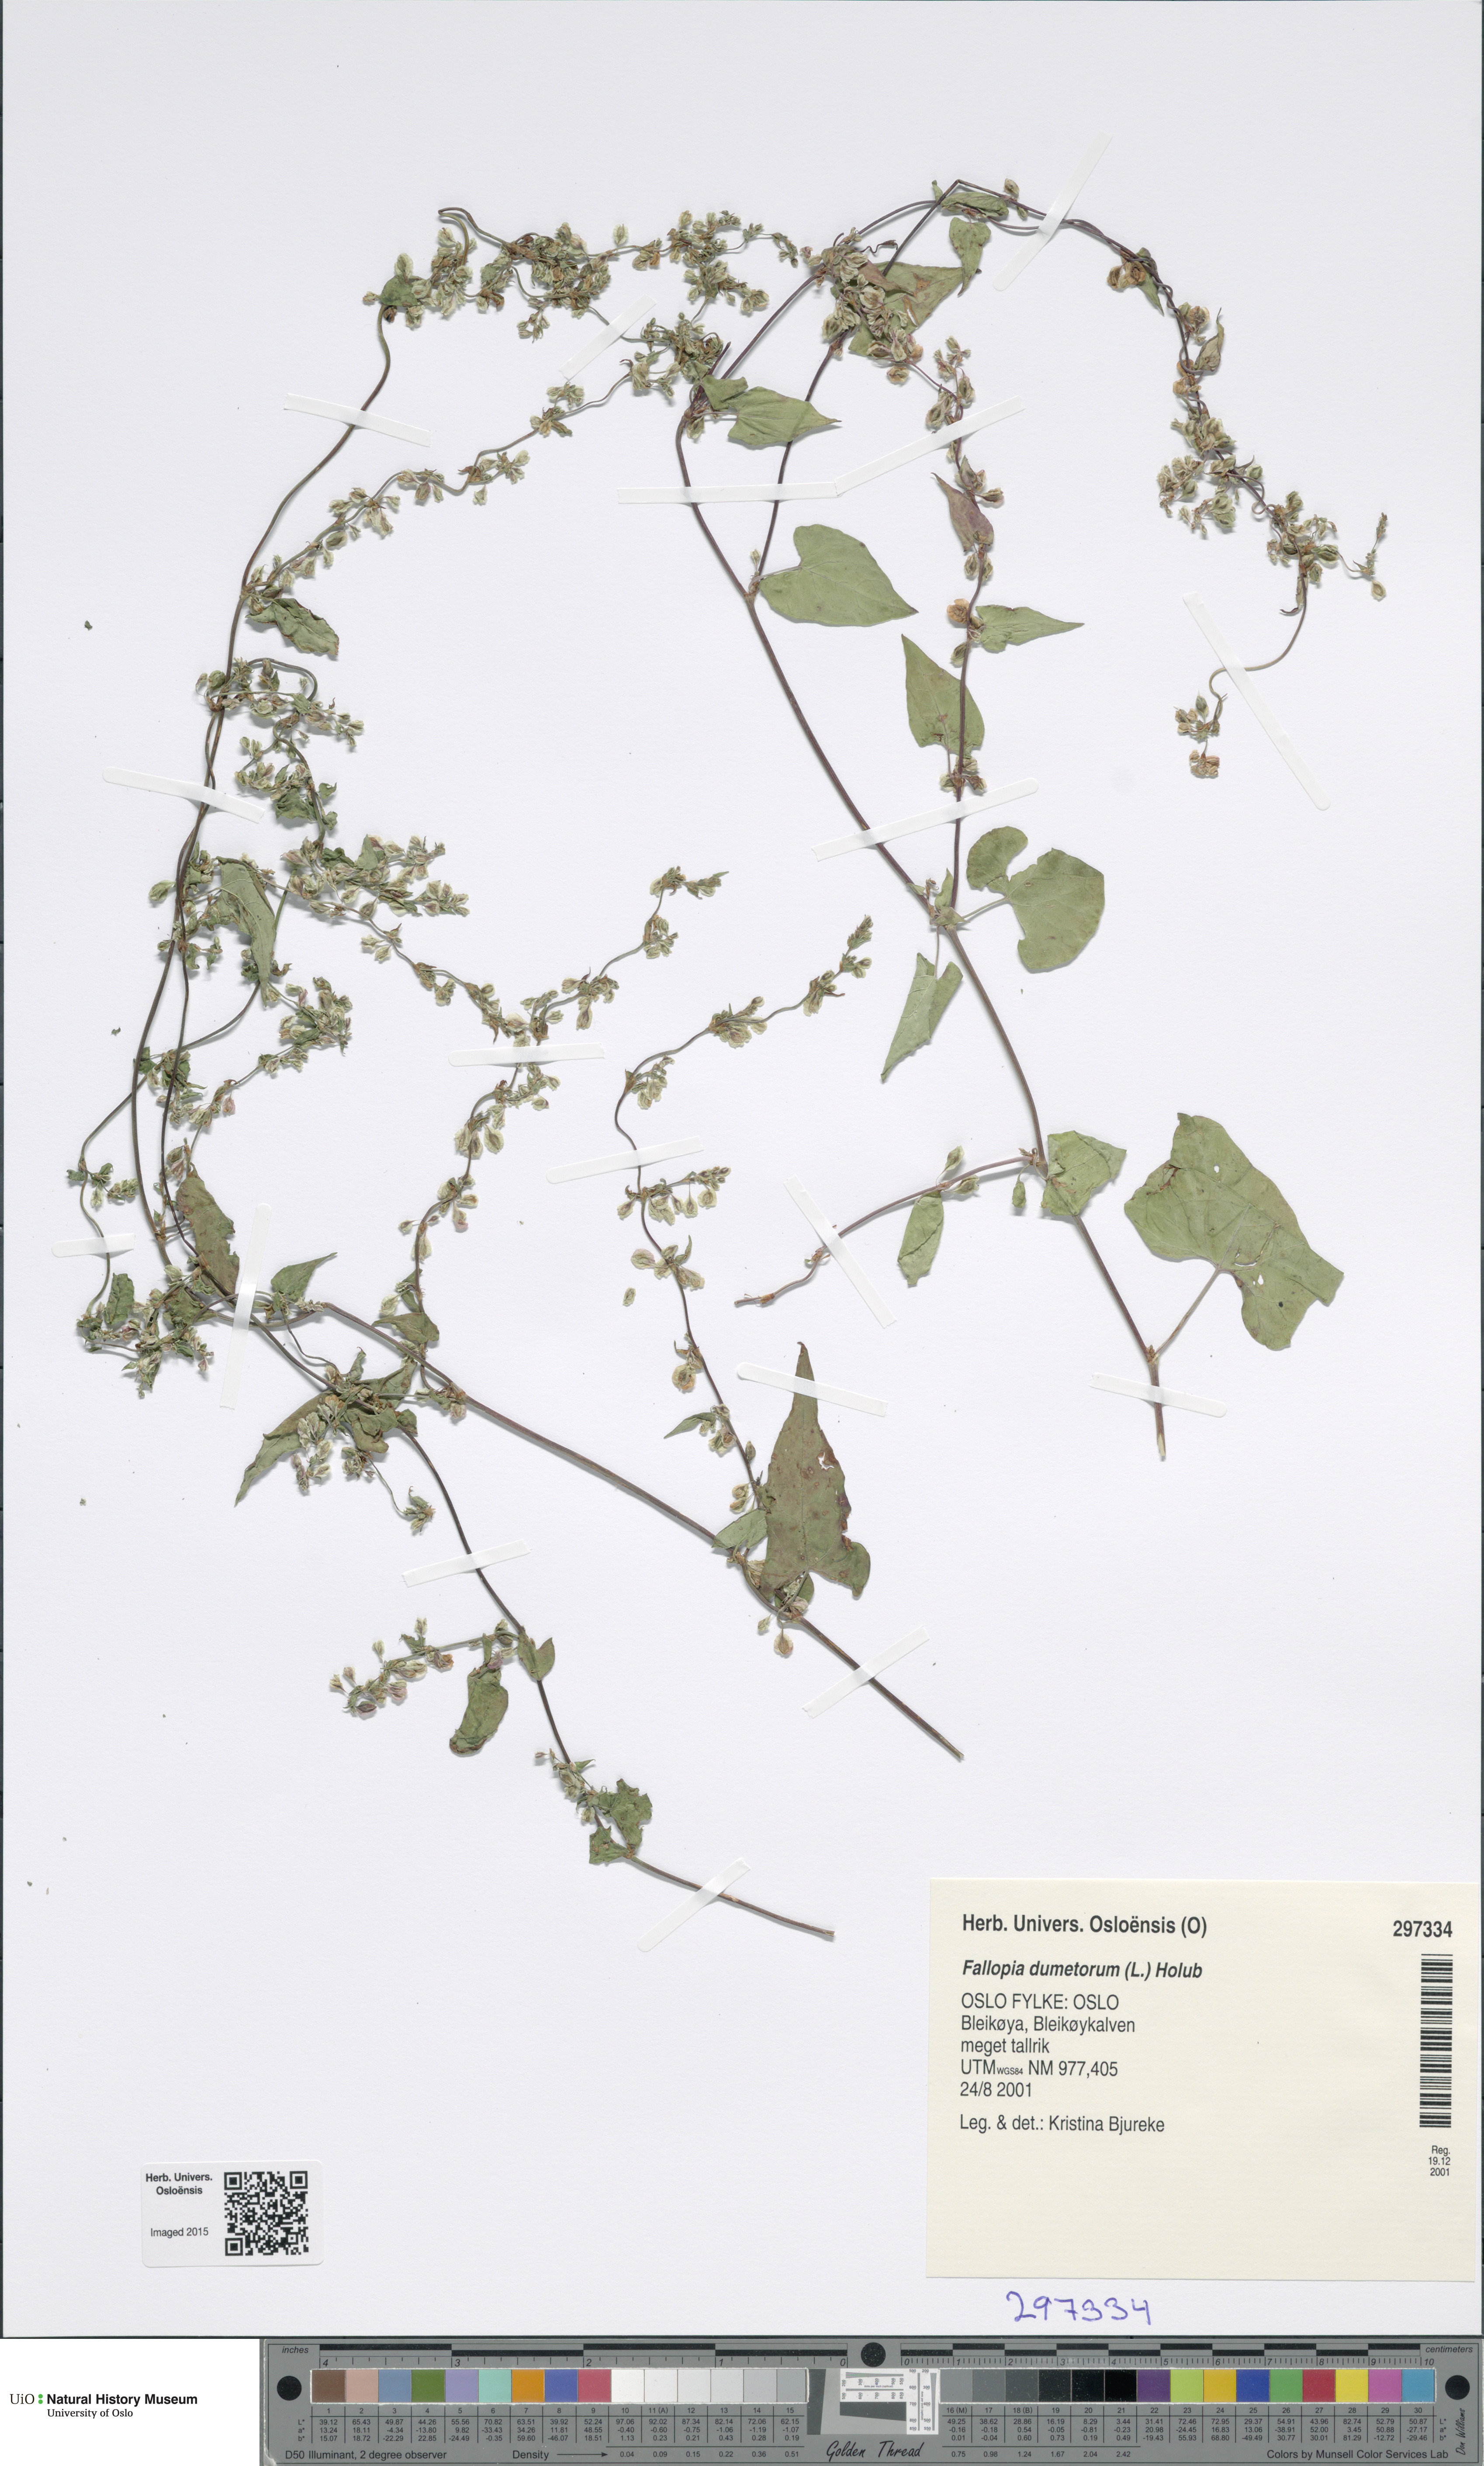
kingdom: Plantae
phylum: Tracheophyta
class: Magnoliopsida
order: Caryophyllales
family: Polygonaceae
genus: Fallopia
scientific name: Fallopia dumetorum
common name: Copse-bindweed
